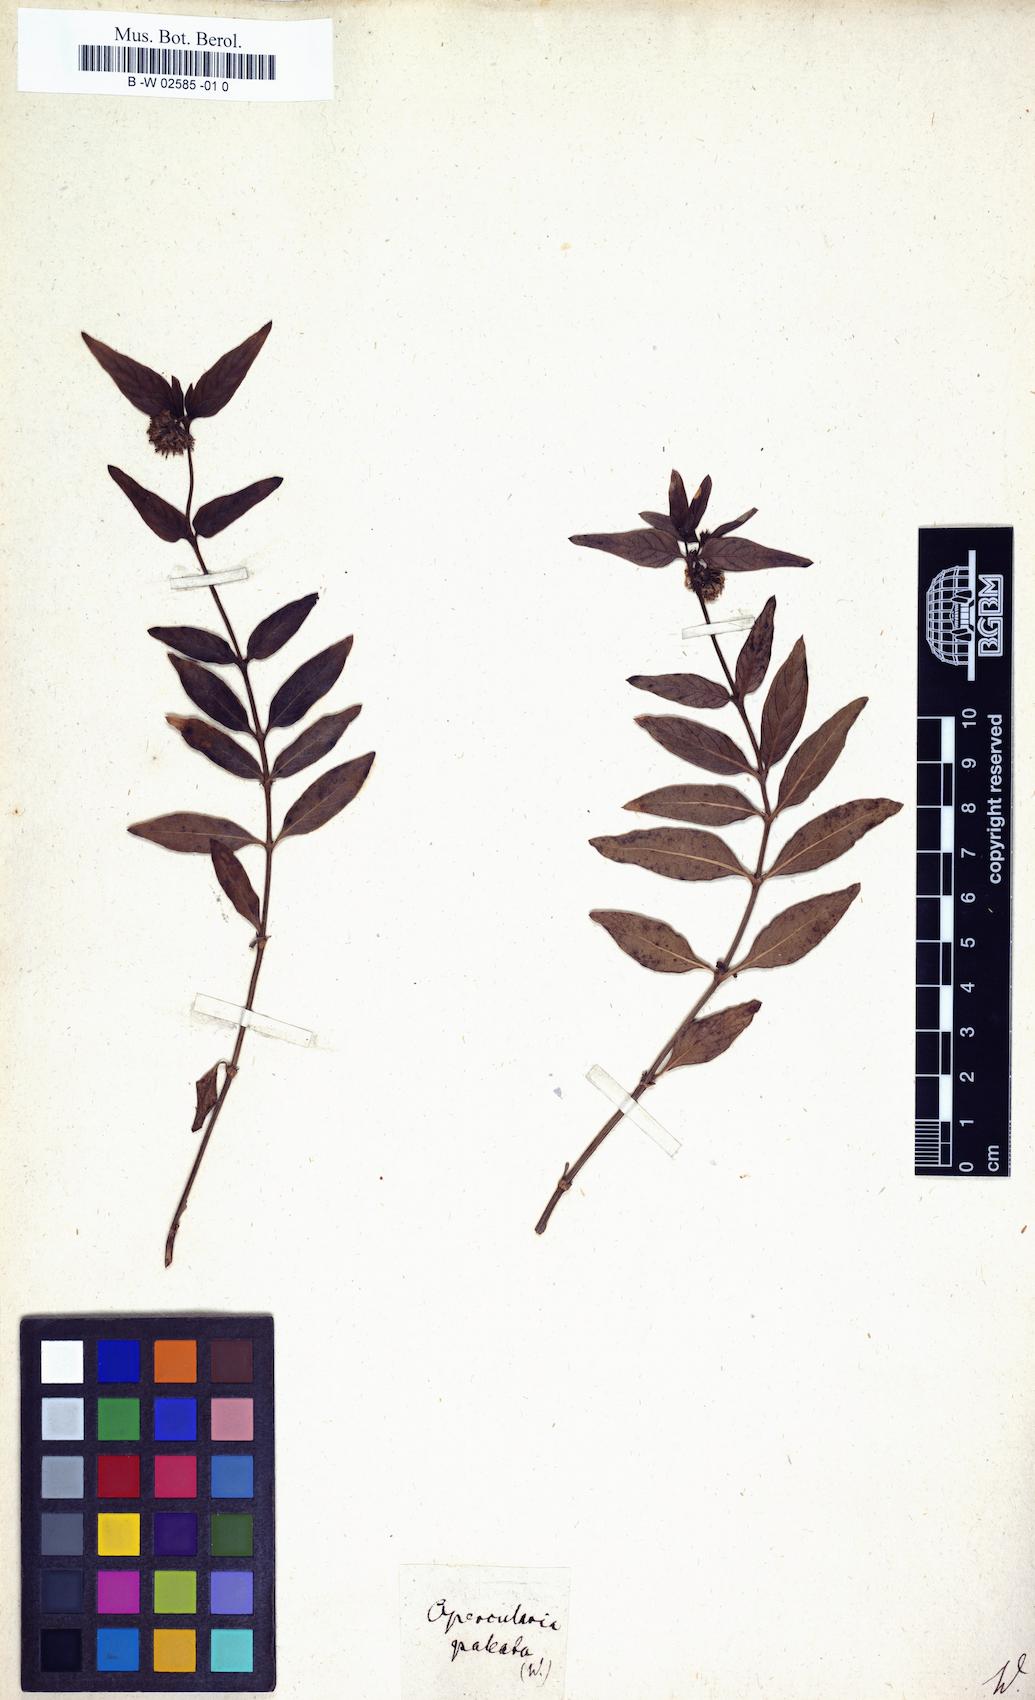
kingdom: Plantae
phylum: Tracheophyta
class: Magnoliopsida
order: Gentianales
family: Rubiaceae
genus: Opercularia
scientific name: Opercularia aspera
